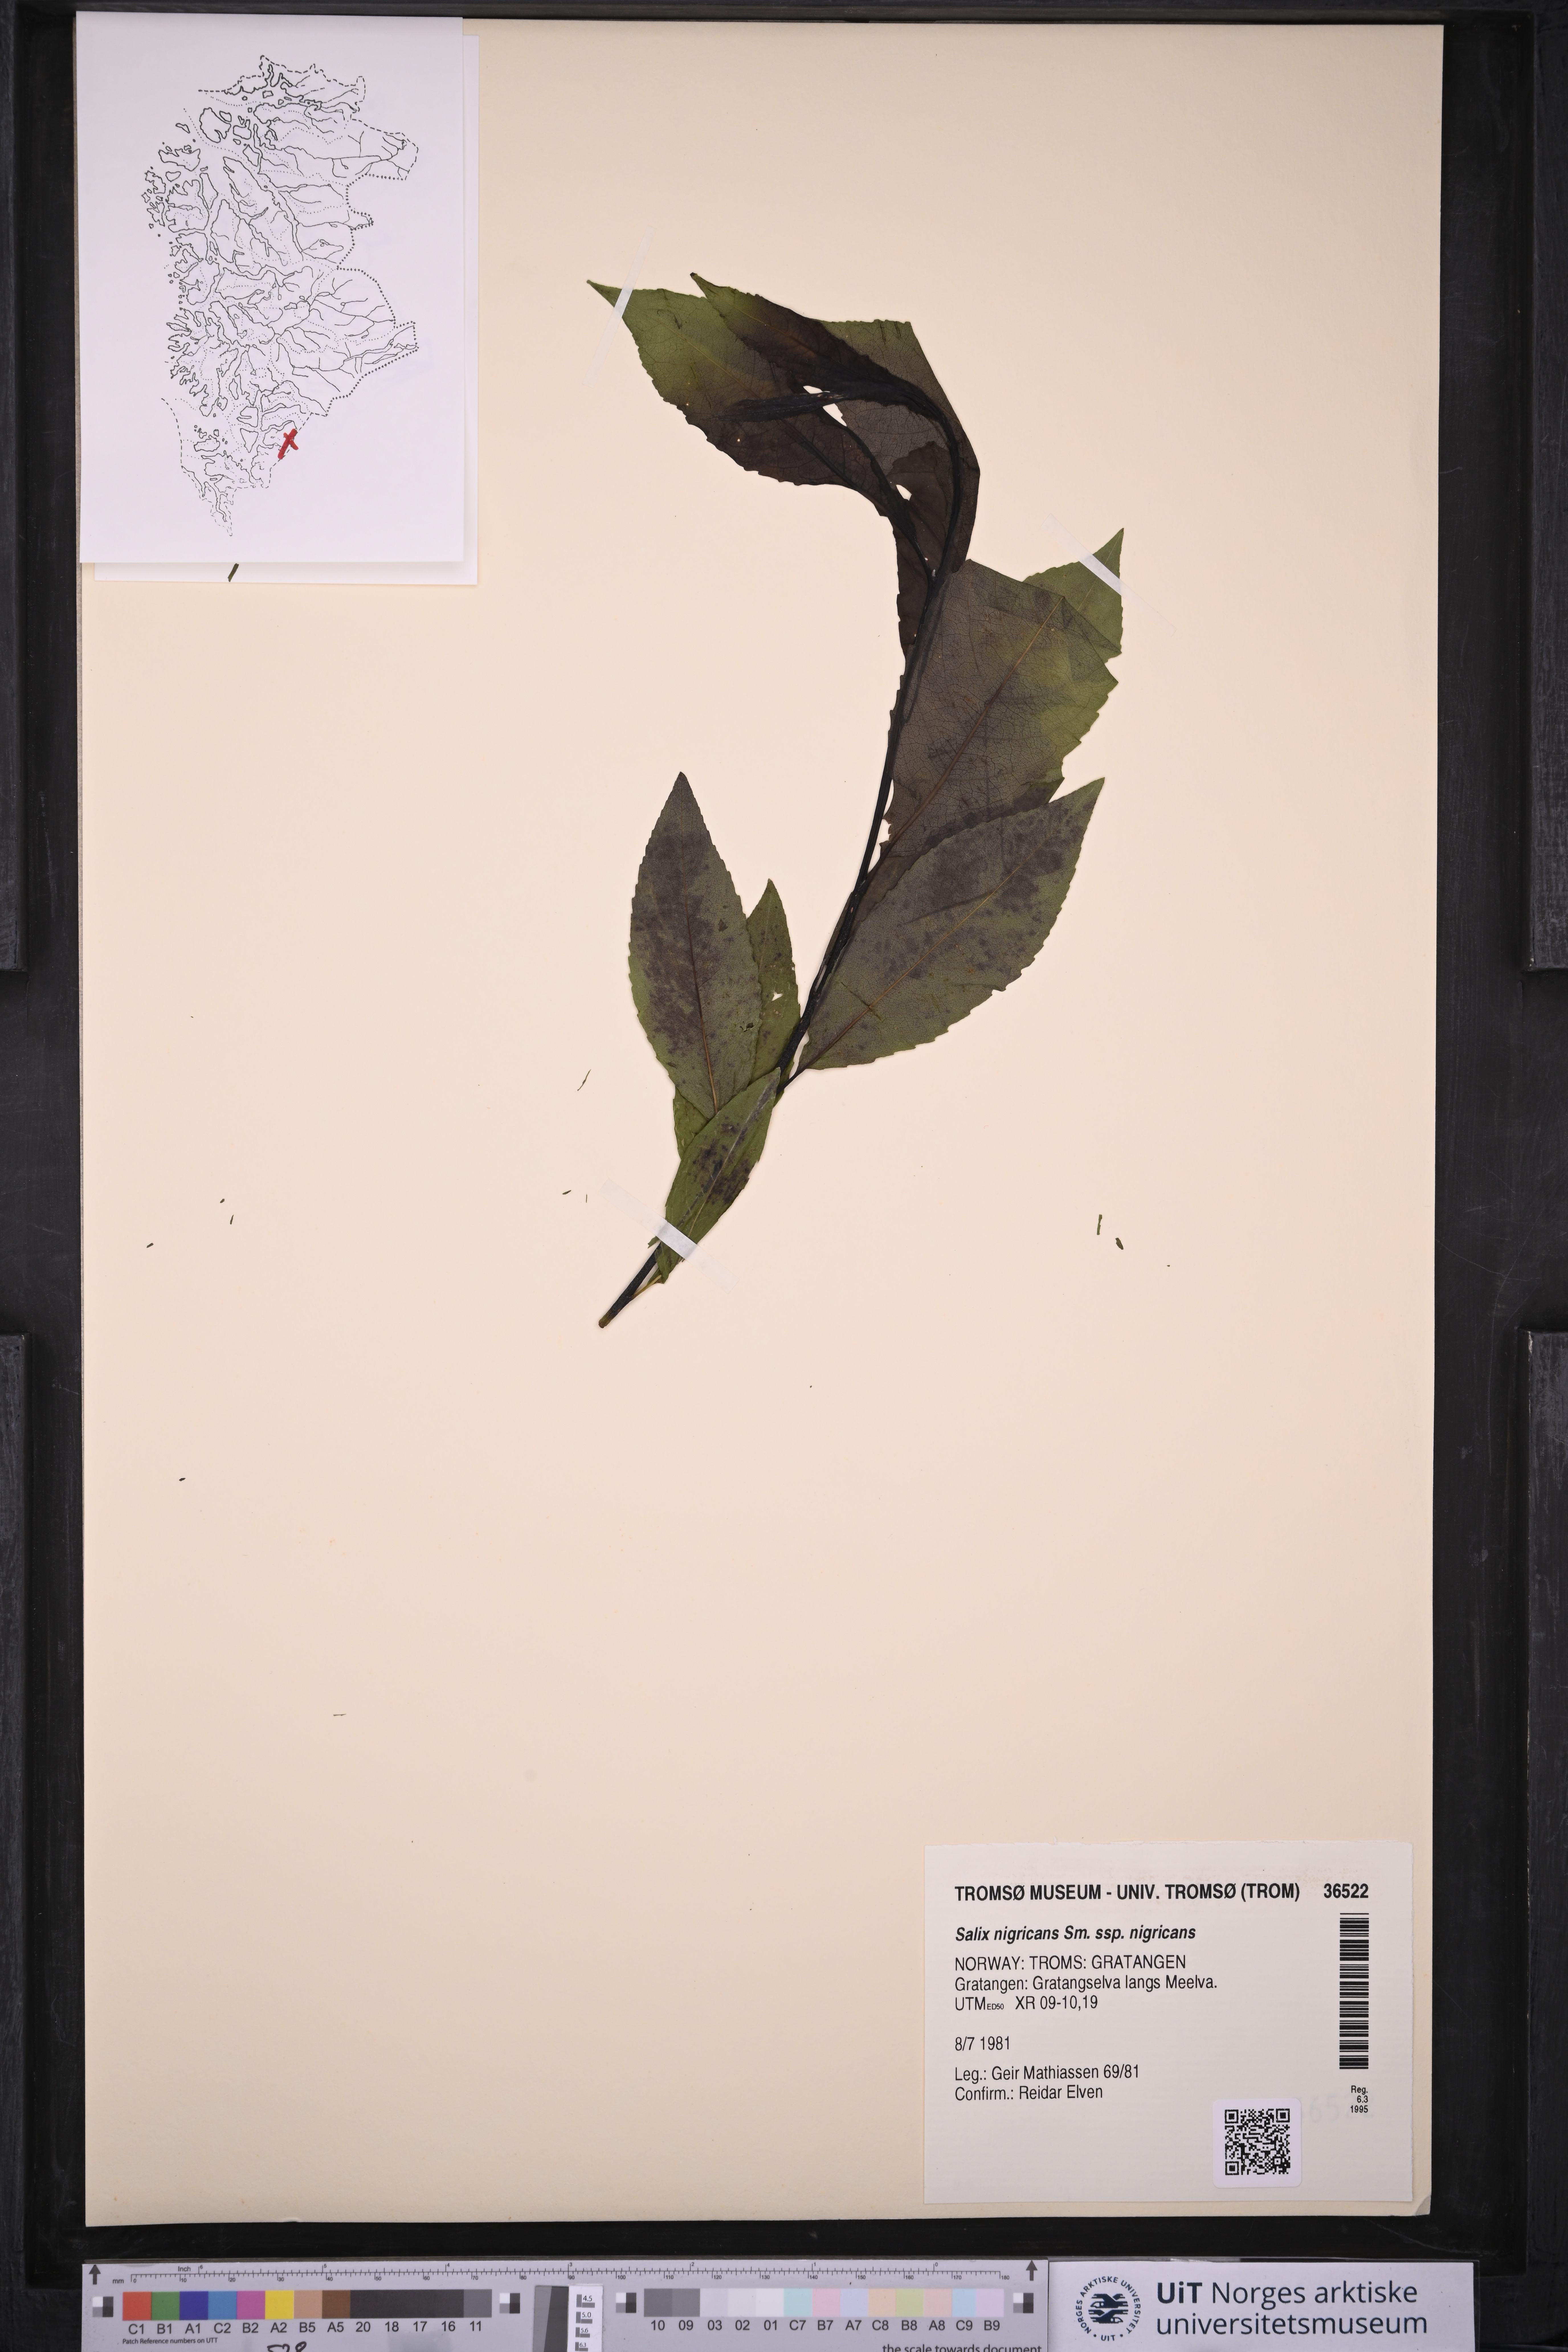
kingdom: Plantae
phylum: Tracheophyta
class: Magnoliopsida
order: Malpighiales
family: Salicaceae
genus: Salix
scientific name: Salix myrsinifolia
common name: Dark-leaved willow
